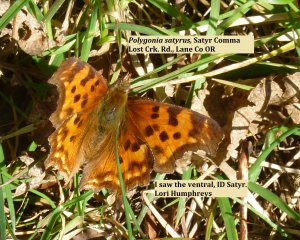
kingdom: Animalia
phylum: Arthropoda
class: Insecta
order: Lepidoptera
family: Nymphalidae
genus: Polygonia
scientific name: Polygonia satyrus
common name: Satyr Comma
